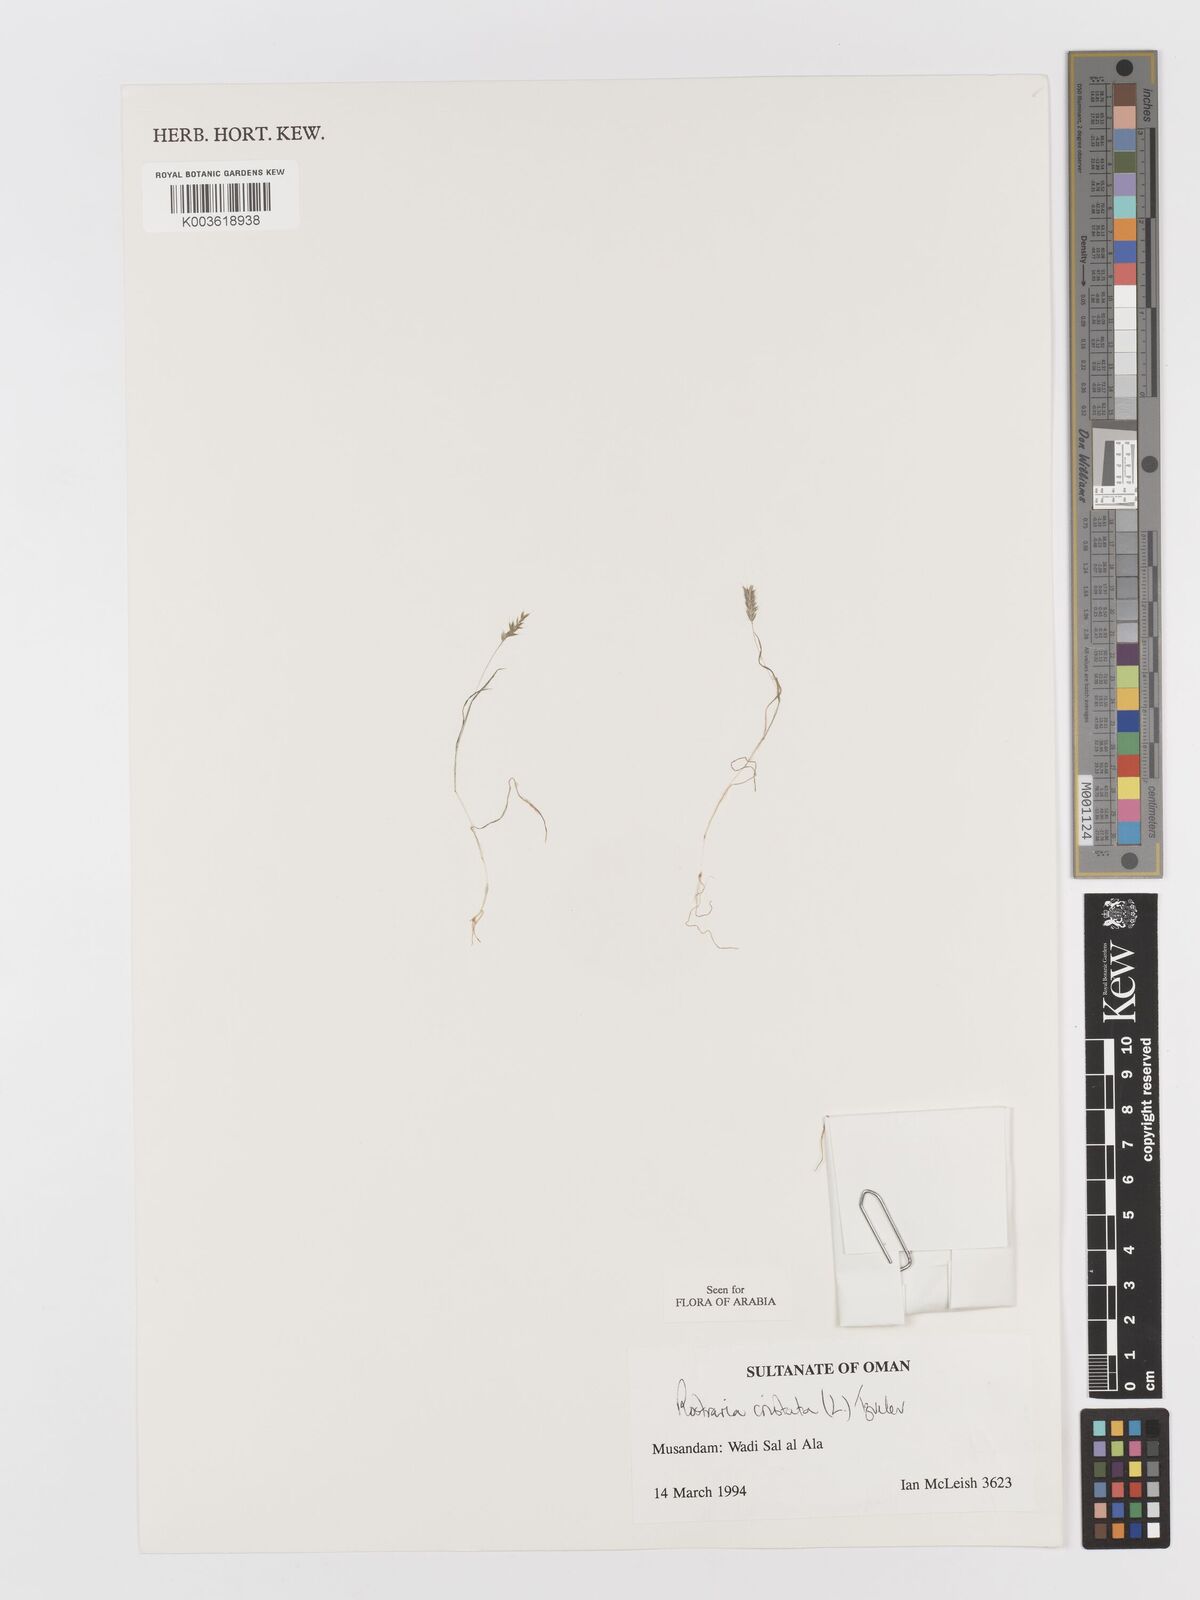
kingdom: Plantae
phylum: Tracheophyta
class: Liliopsida
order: Poales
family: Poaceae
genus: Rostraria
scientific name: Rostraria cristata
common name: Mediterranean hair-grass
